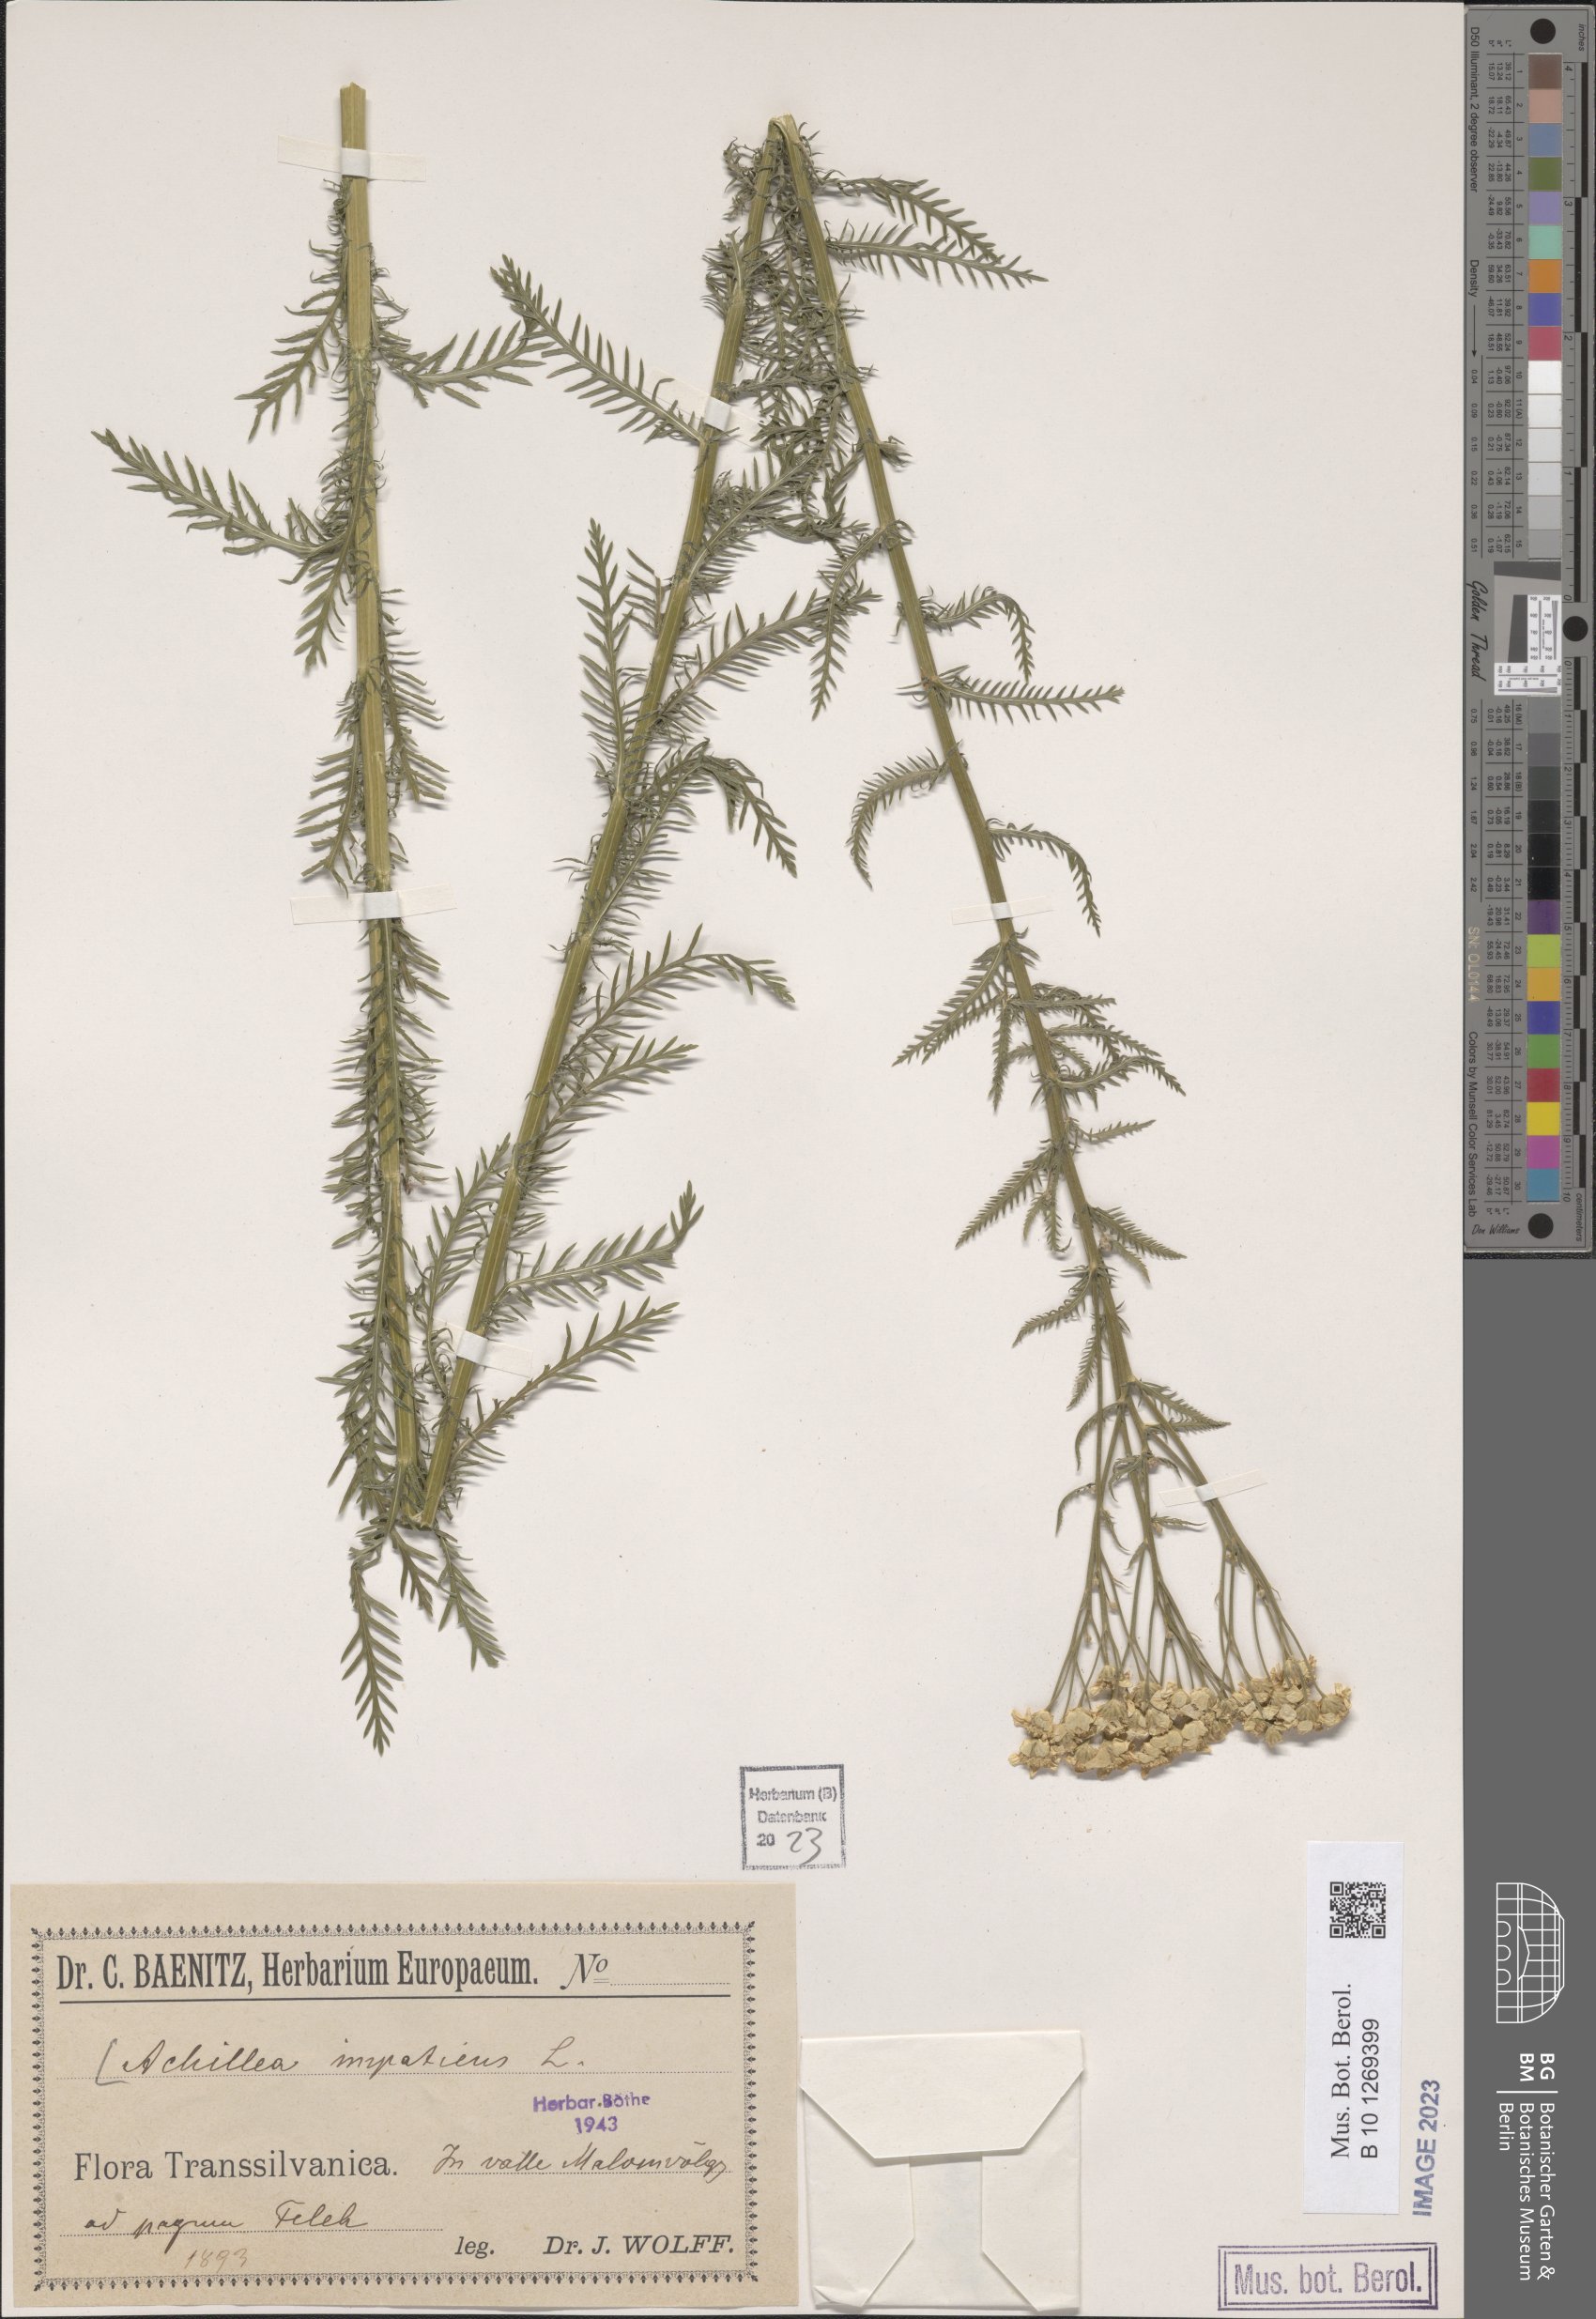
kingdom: Plantae
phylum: Tracheophyta
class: Magnoliopsida
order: Asterales
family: Asteraceae
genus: Achillea
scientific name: Achillea impatiens
